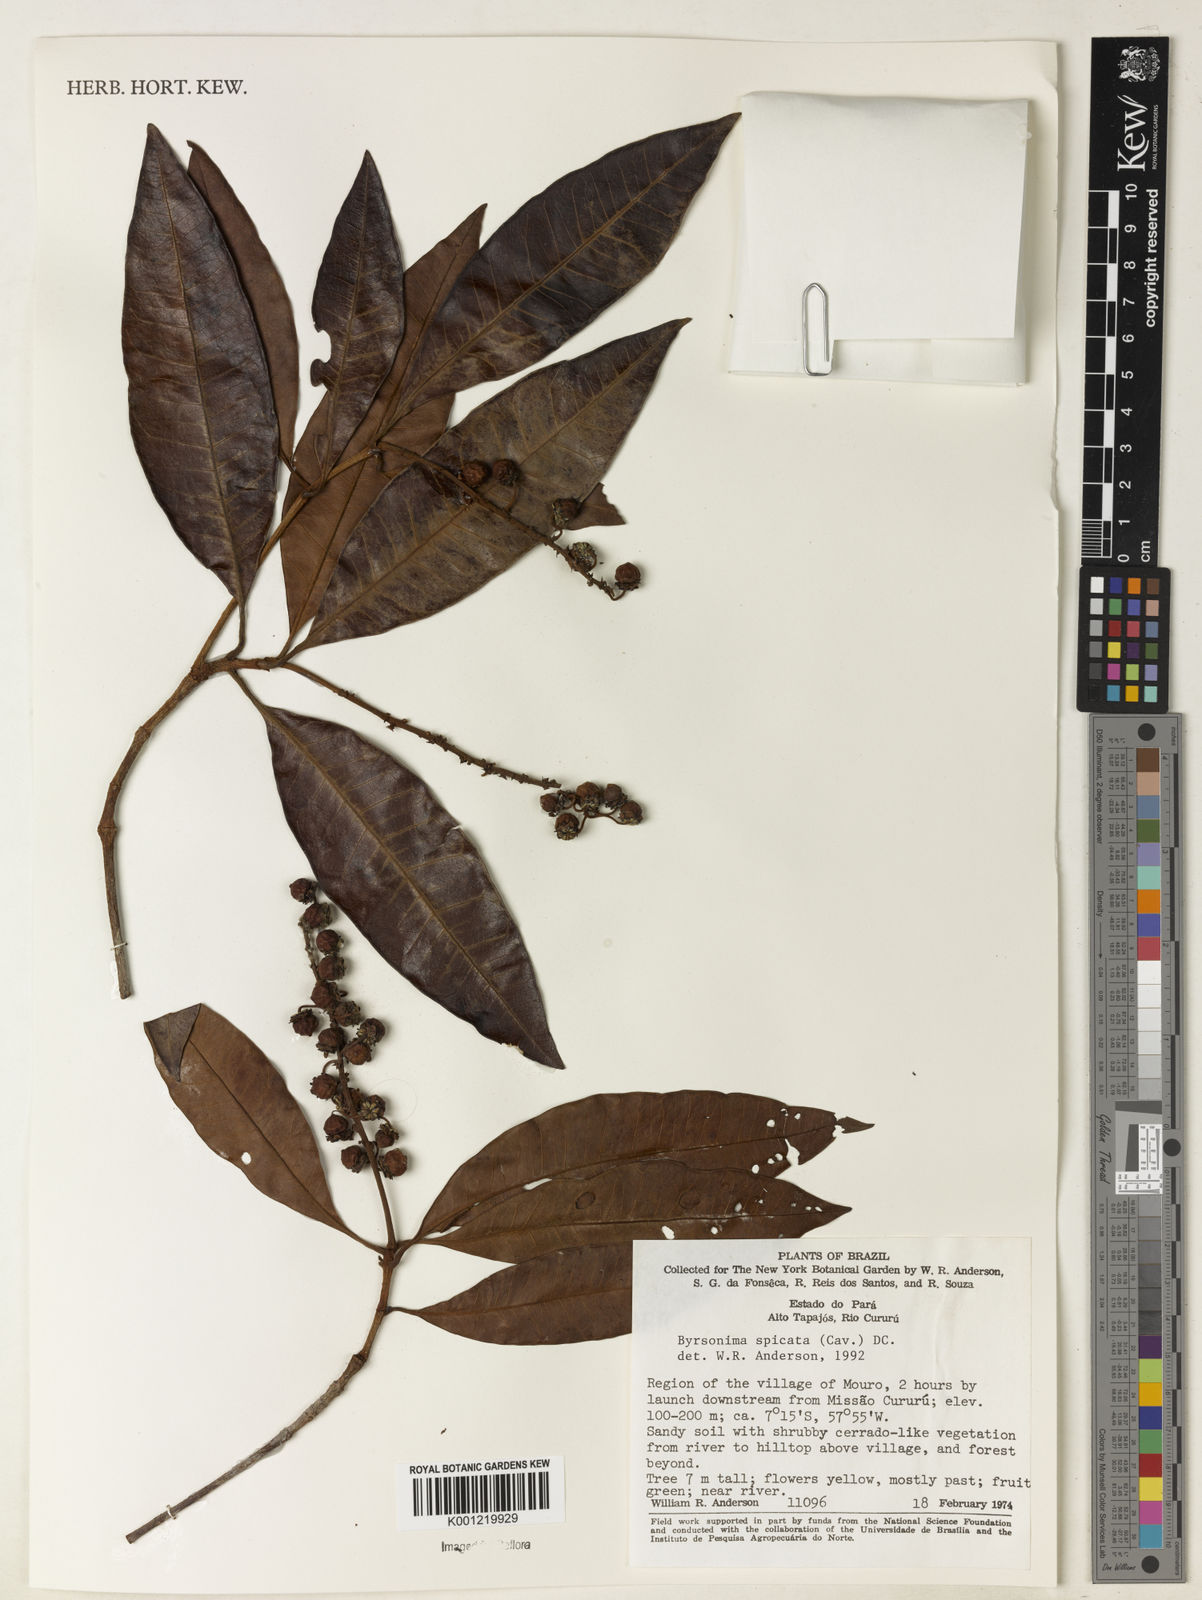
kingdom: Plantae
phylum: Tracheophyta
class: Magnoliopsida
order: Malpighiales
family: Malpighiaceae
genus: Byrsonima
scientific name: Byrsonima
